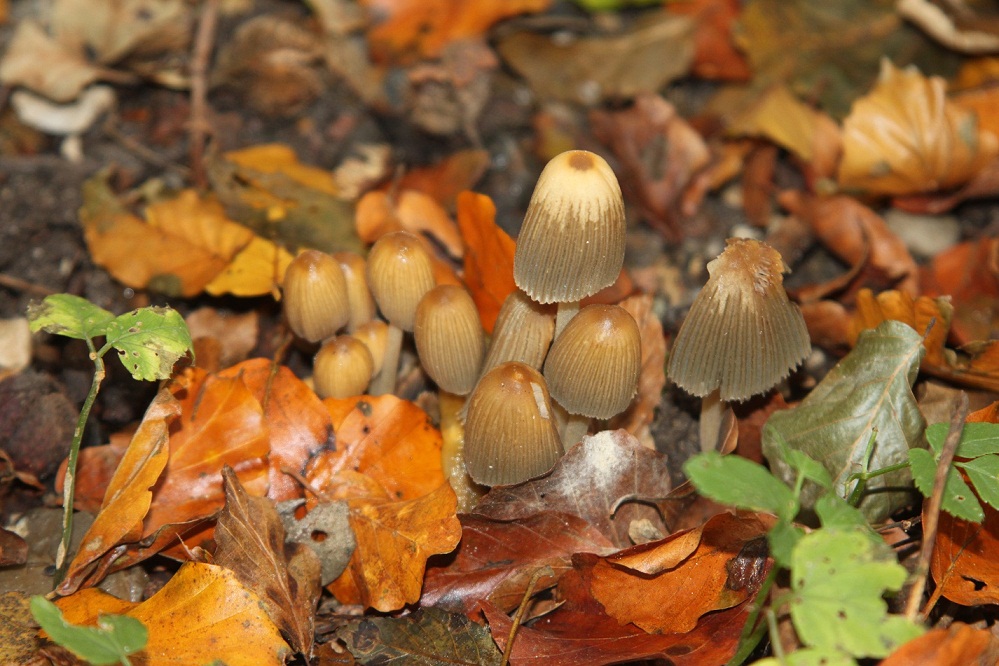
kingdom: Fungi
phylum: Basidiomycota
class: Agaricomycetes
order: Agaricales
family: Psathyrellaceae
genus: Coprinellus
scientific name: Coprinellus deliquescens
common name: rusporet blækhat
